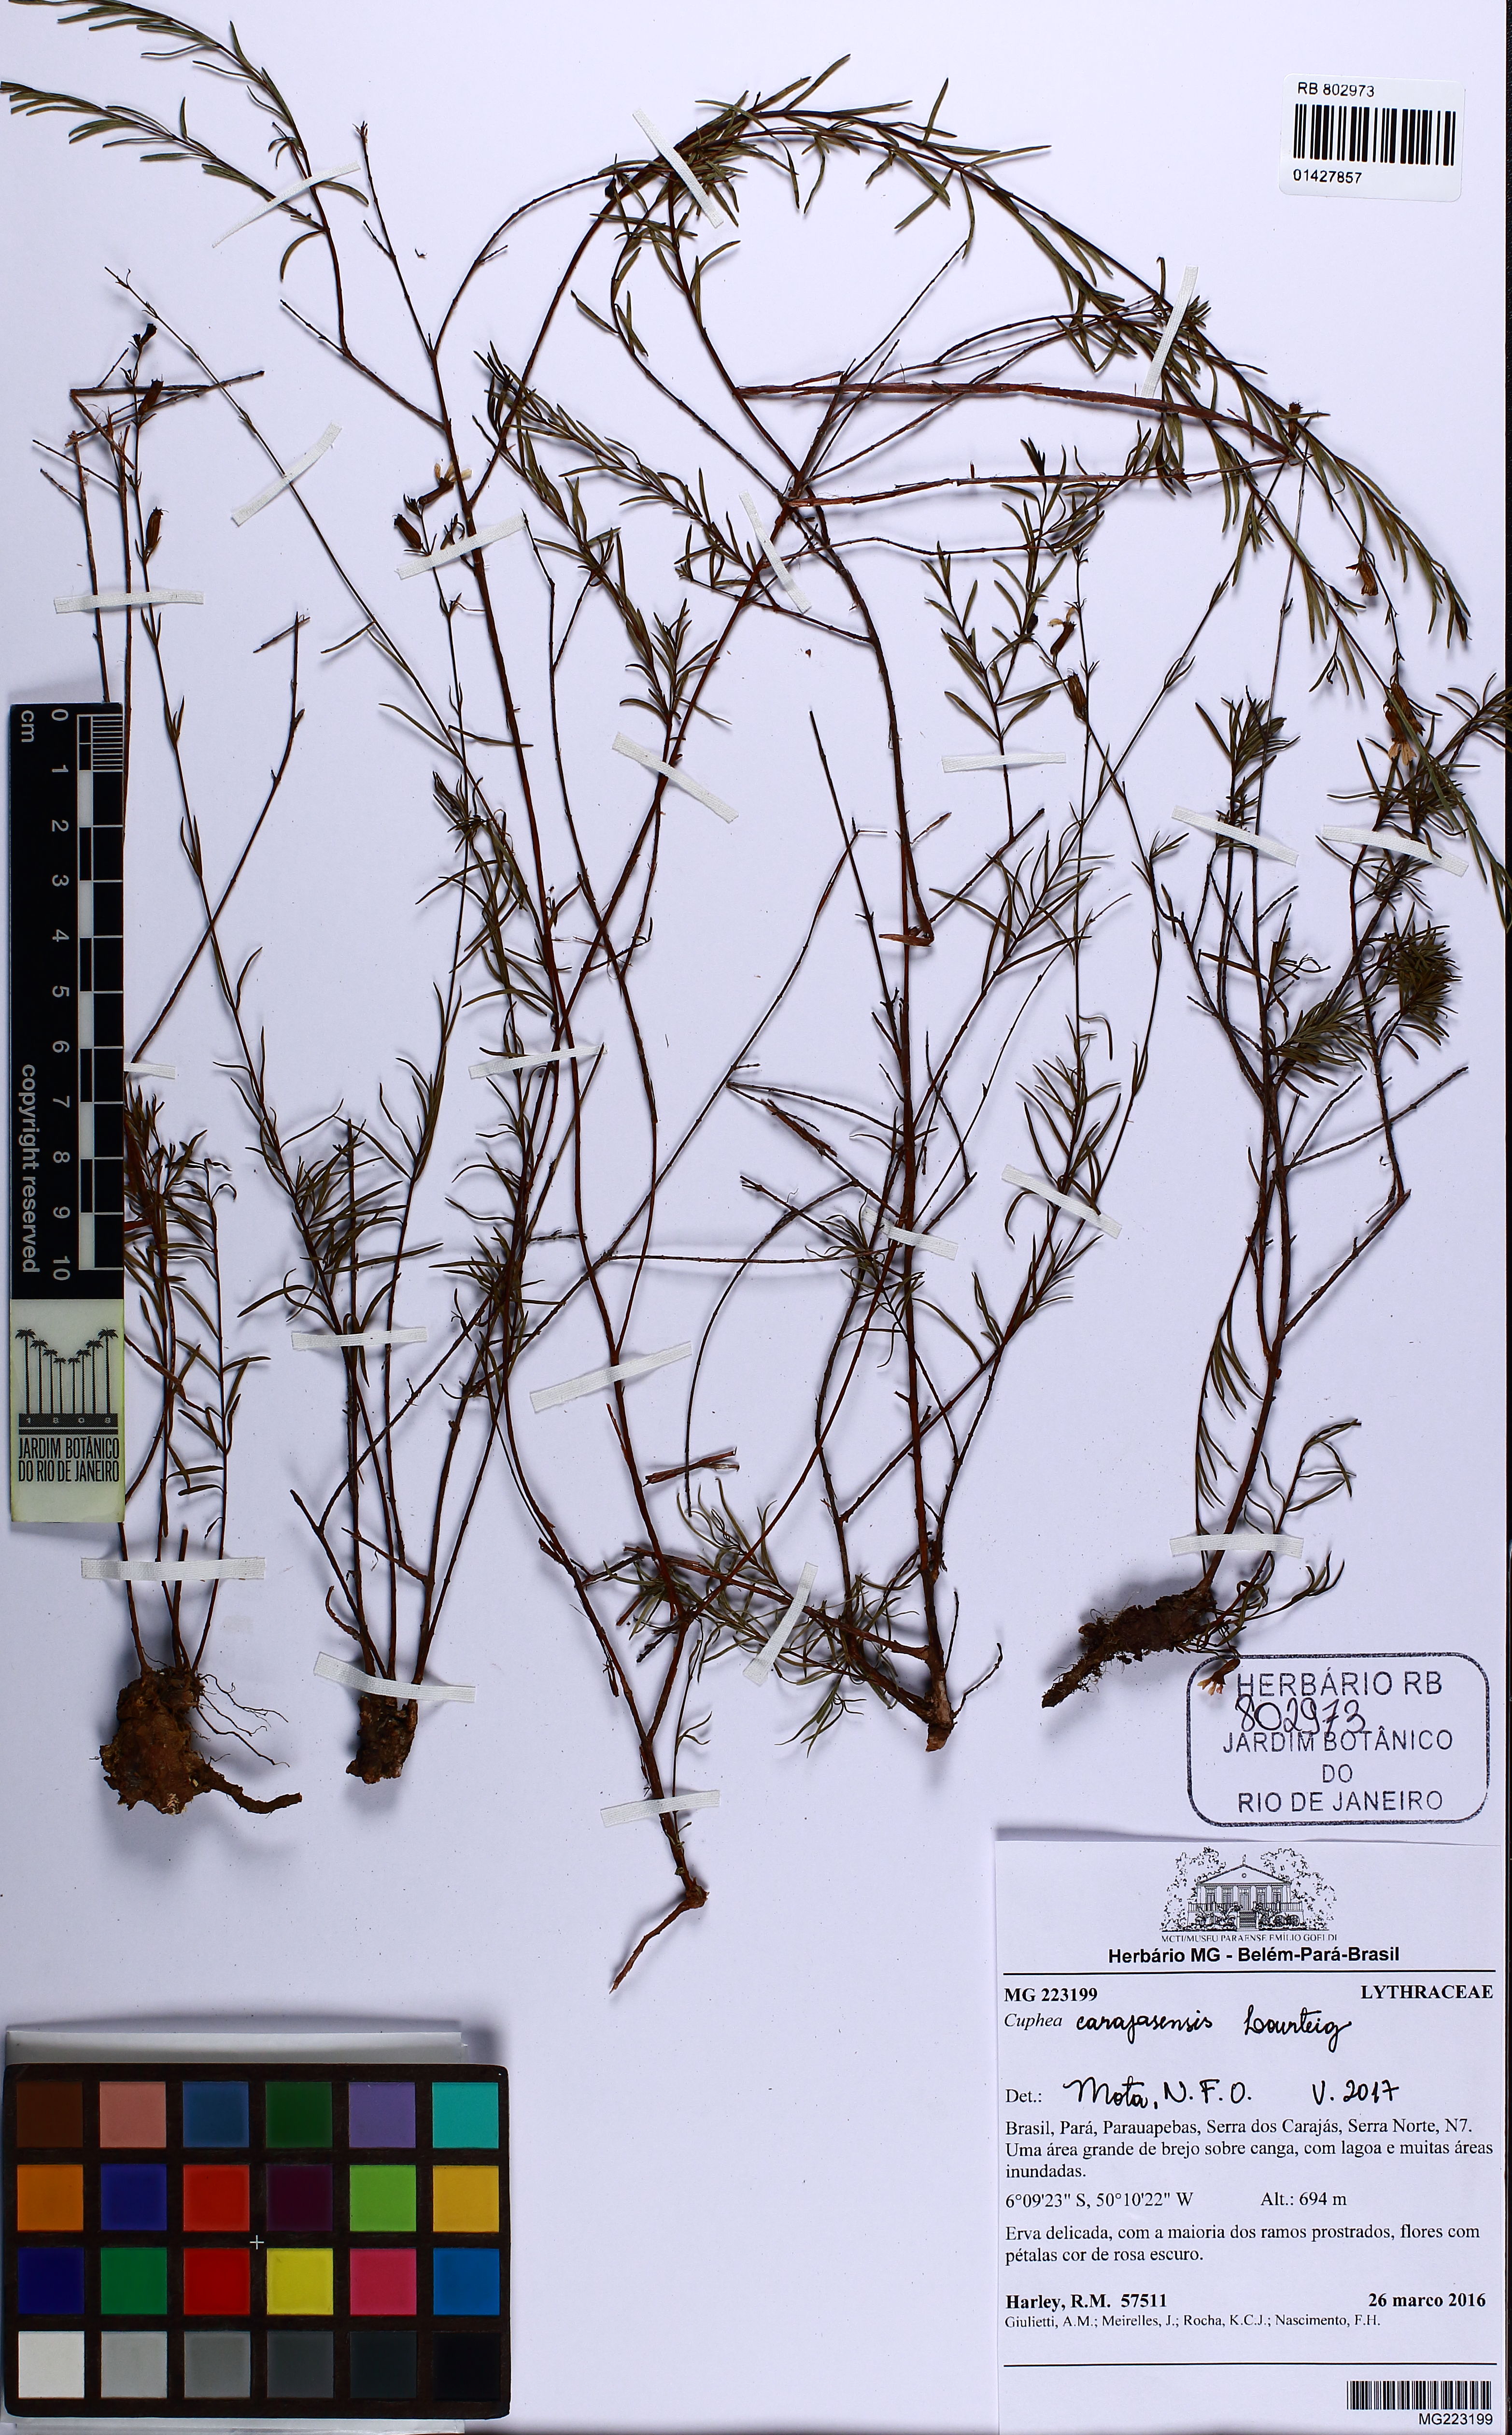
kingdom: Plantae
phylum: Tracheophyta
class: Magnoliopsida
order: Myrtales
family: Lythraceae
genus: Cuphea
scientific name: Cuphea carajasensis
